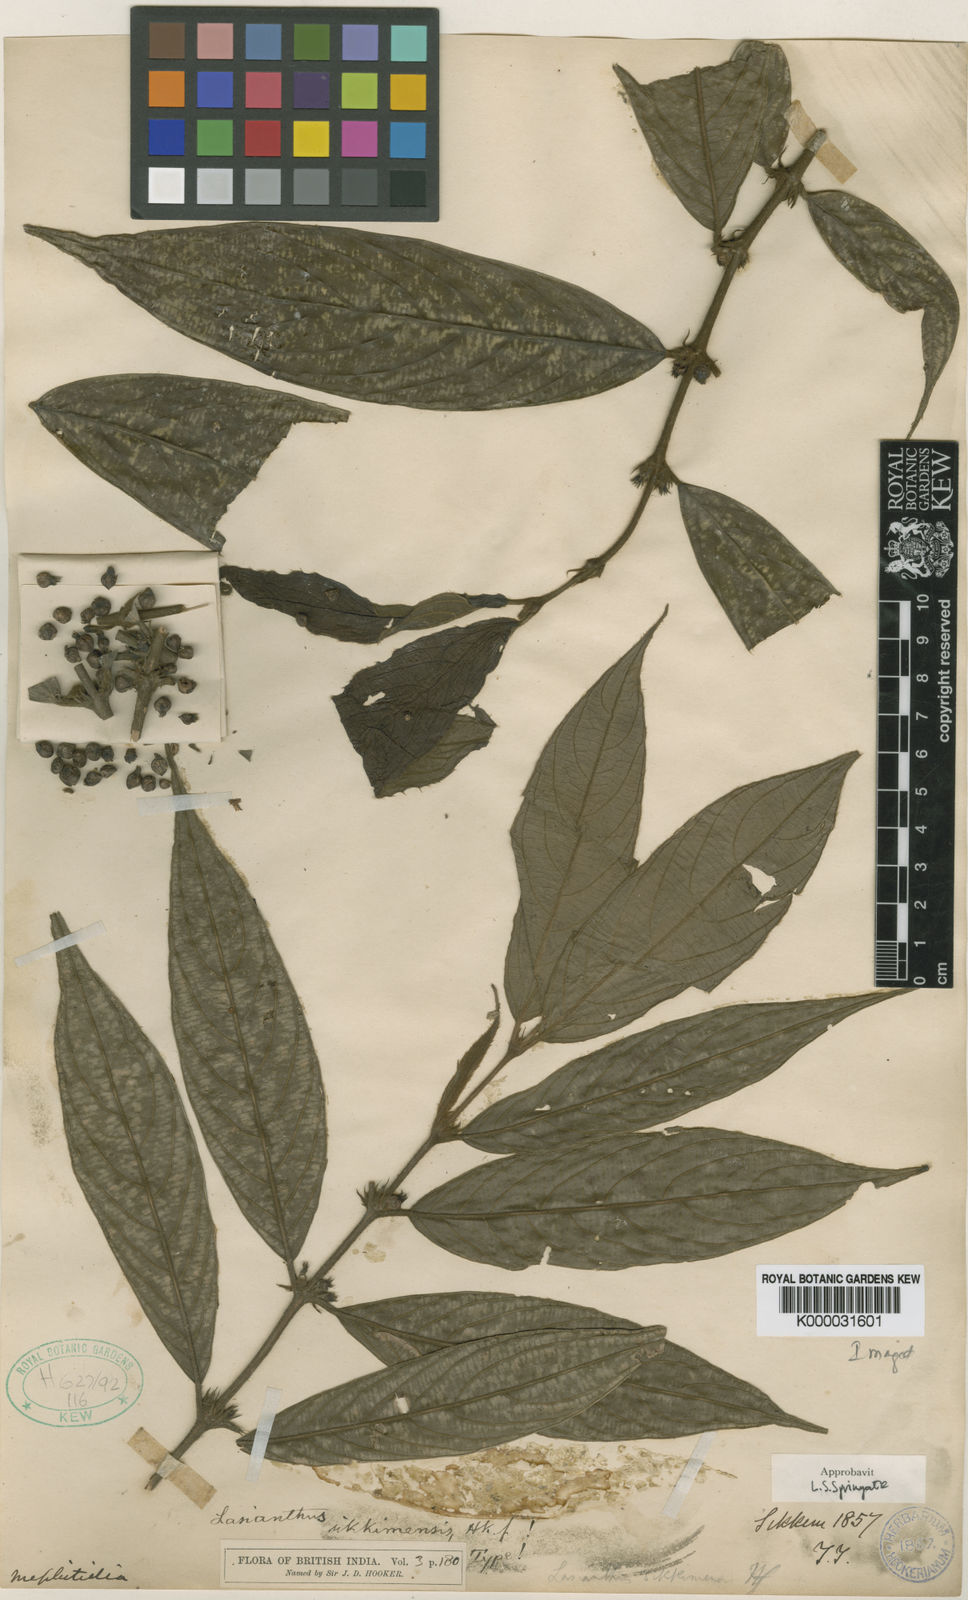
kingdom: Plantae
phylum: Tracheophyta
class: Magnoliopsida
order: Gentianales
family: Rubiaceae
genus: Lasianthus
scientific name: Lasianthus sikkimensis
